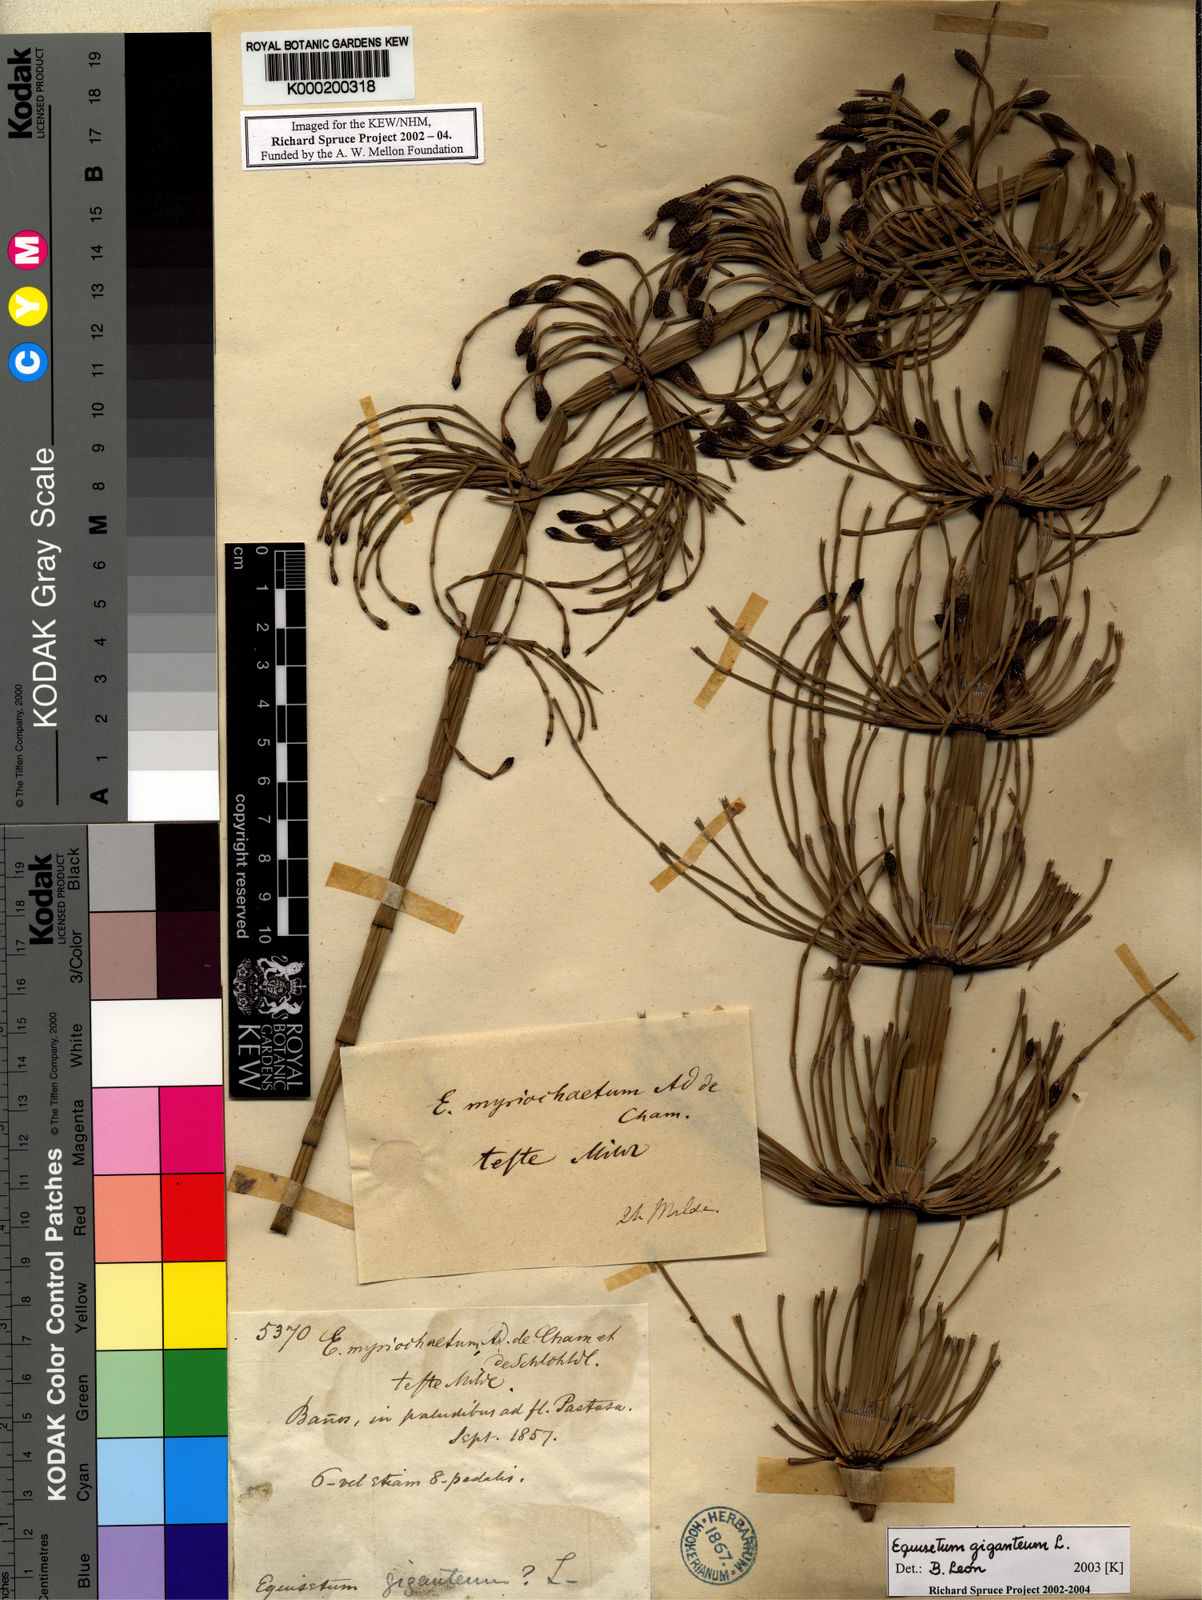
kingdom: Plantae
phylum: Tracheophyta
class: Polypodiopsida
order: Equisetales
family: Equisetaceae
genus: Equisetum
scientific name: Equisetum giganteum
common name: Giant horsetail
